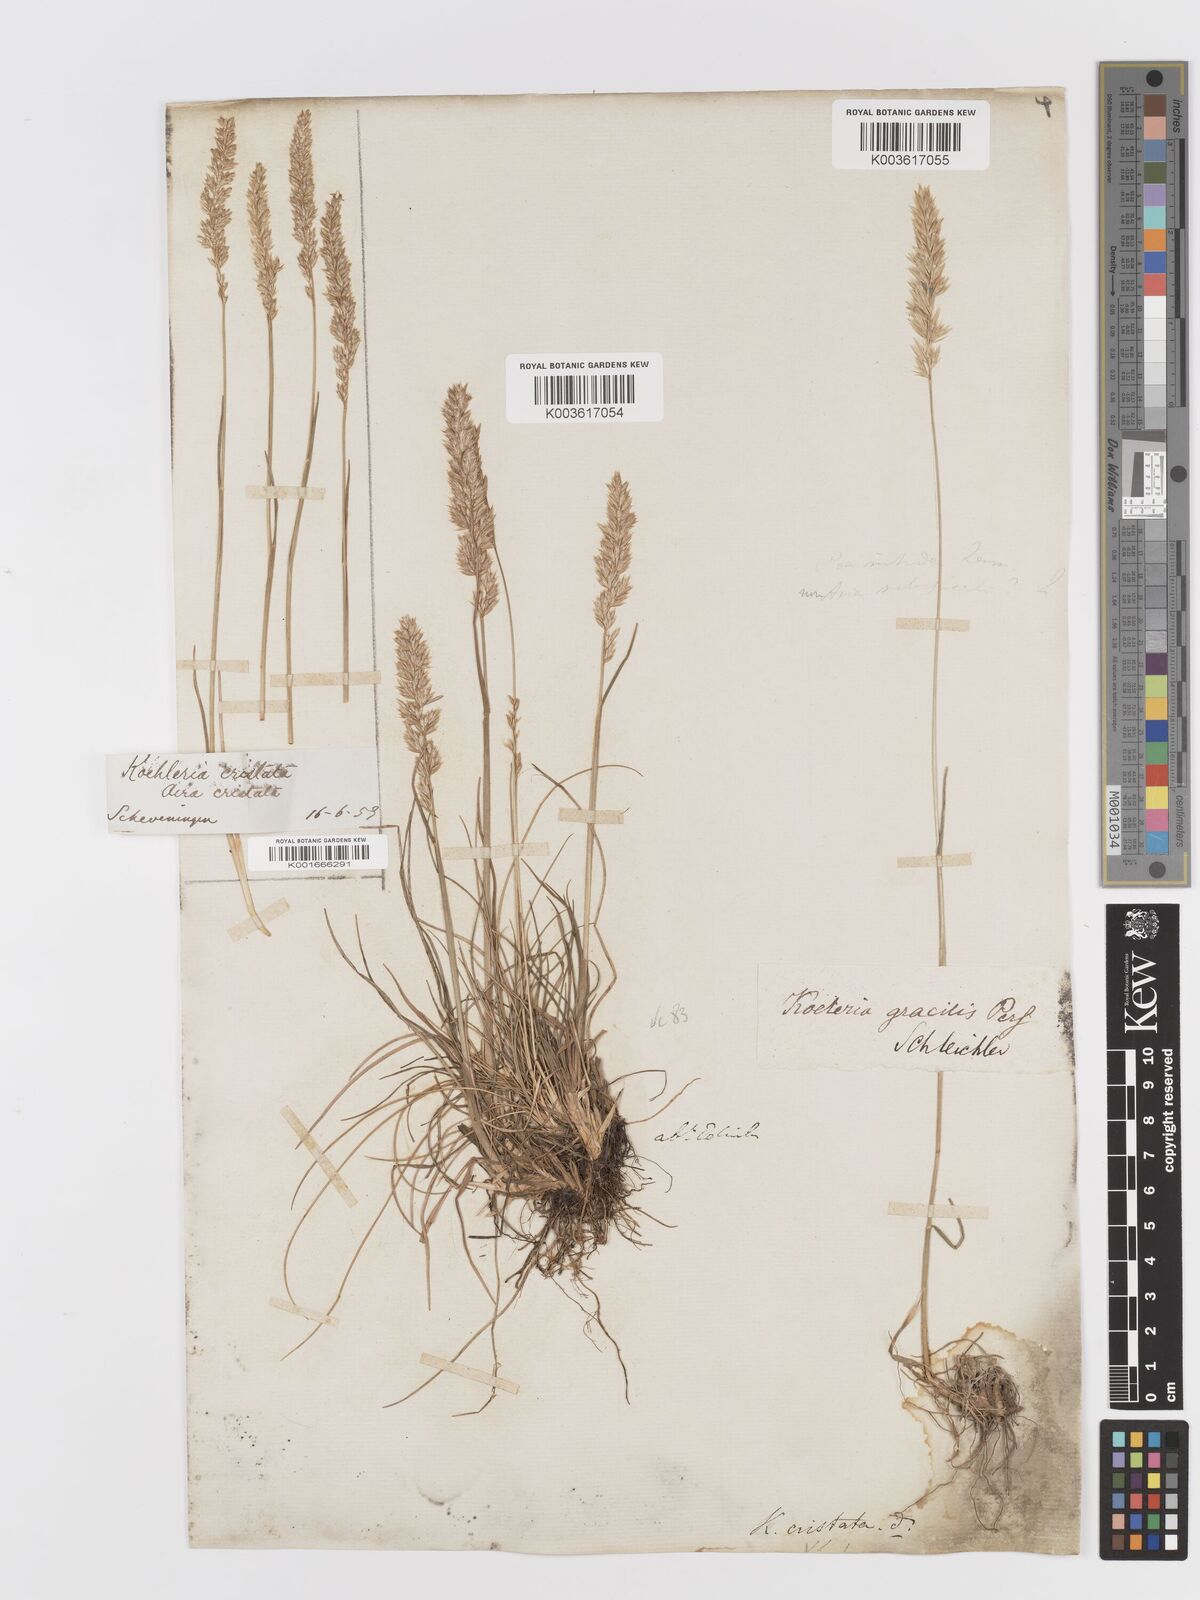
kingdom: Plantae
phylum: Tracheophyta
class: Liliopsida
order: Poales
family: Poaceae
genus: Koeleria
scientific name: Koeleria macrantha
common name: Crested hair-grass
